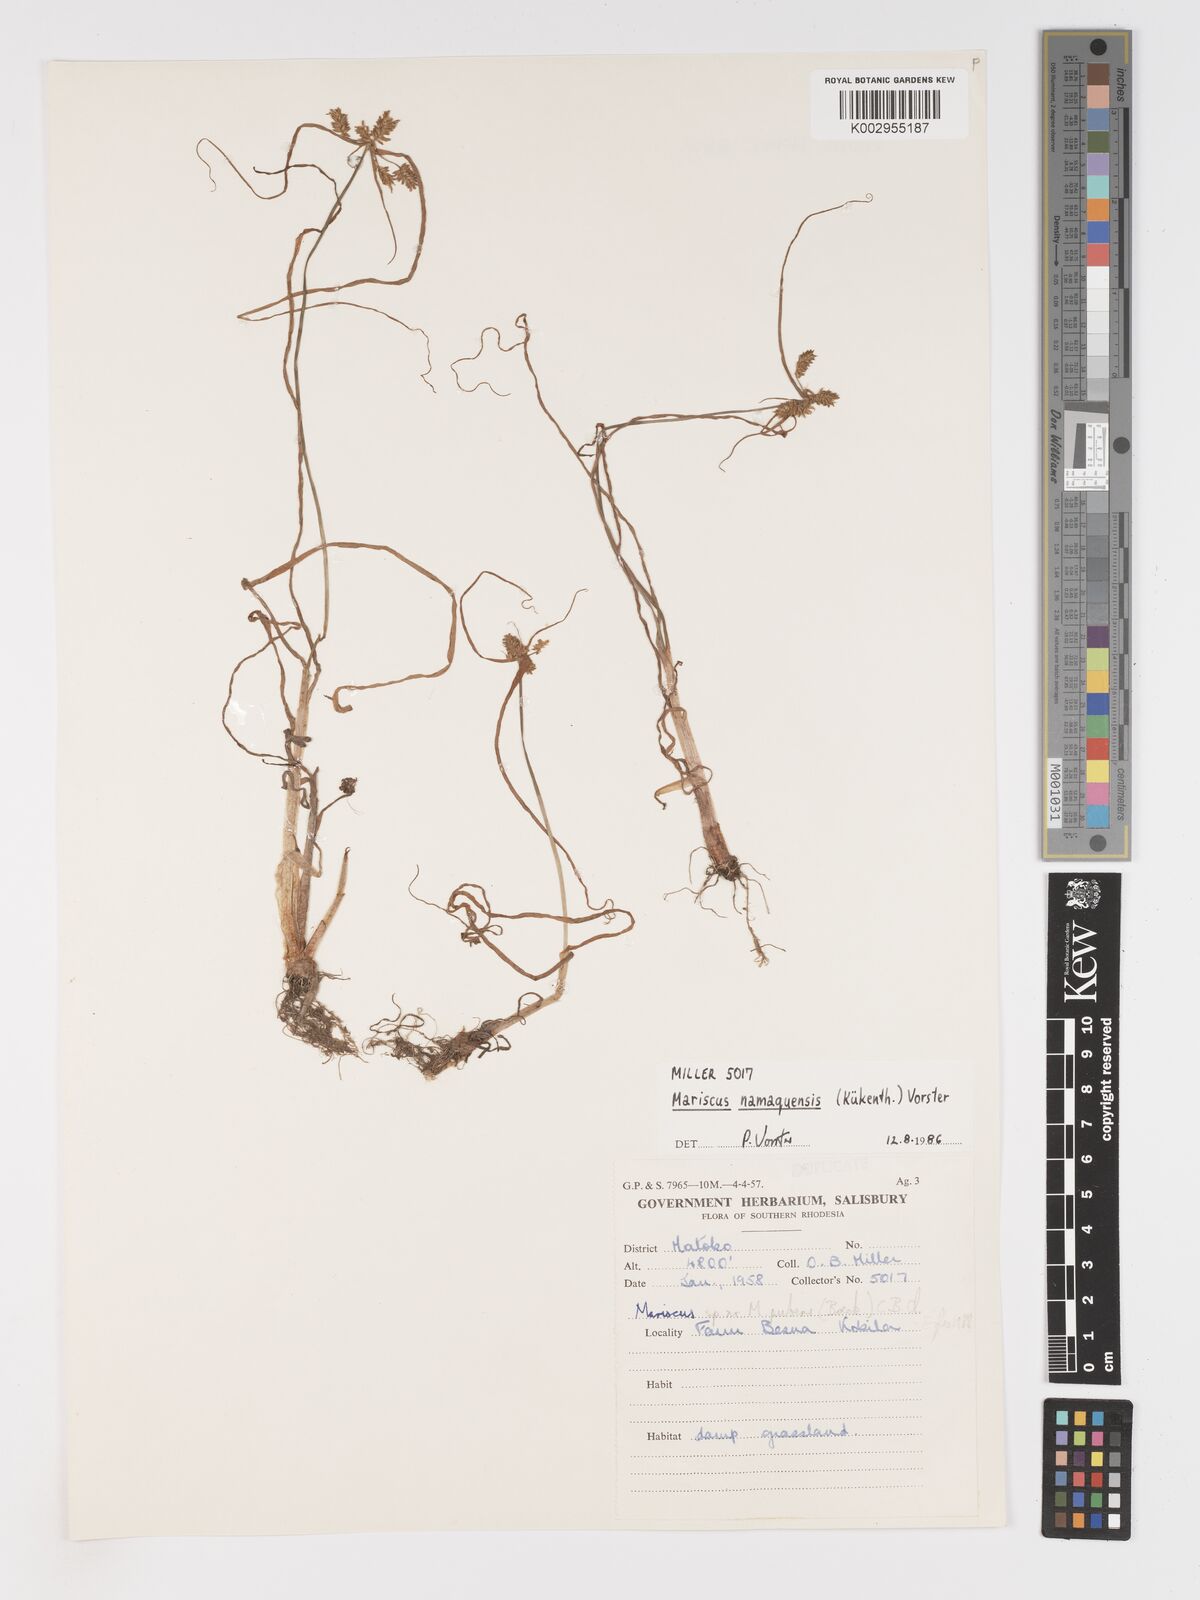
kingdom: Plantae
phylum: Tracheophyta
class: Liliopsida
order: Poales
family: Cyperaceae
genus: Cyperus
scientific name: Cyperus
